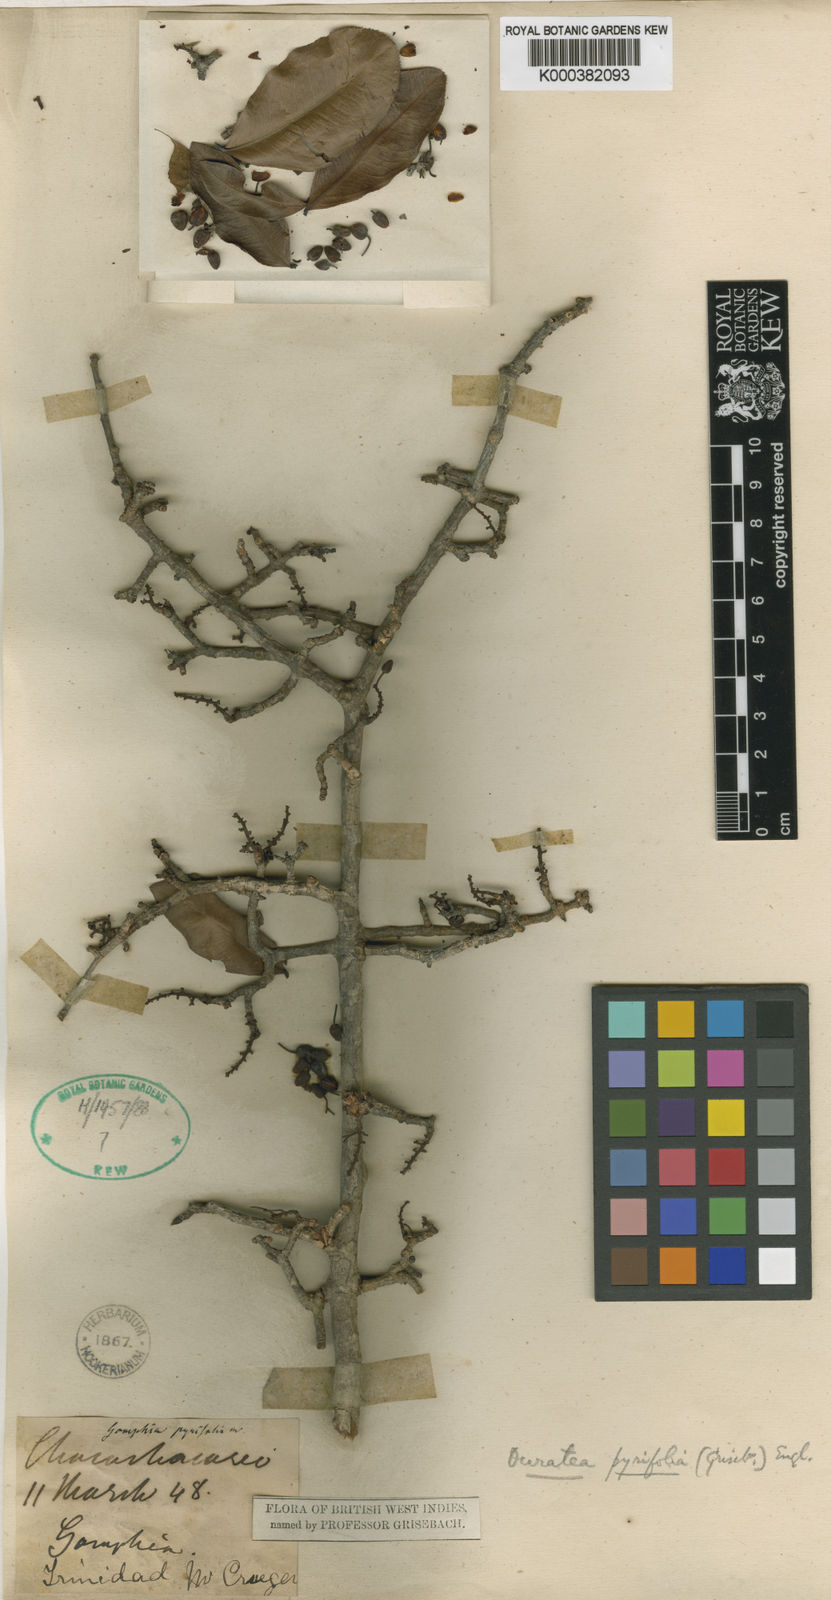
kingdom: Plantae
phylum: Tracheophyta
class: Magnoliopsida
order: Malpighiales
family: Ochnaceae
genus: Ouratea
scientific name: Ouratea guildingii
